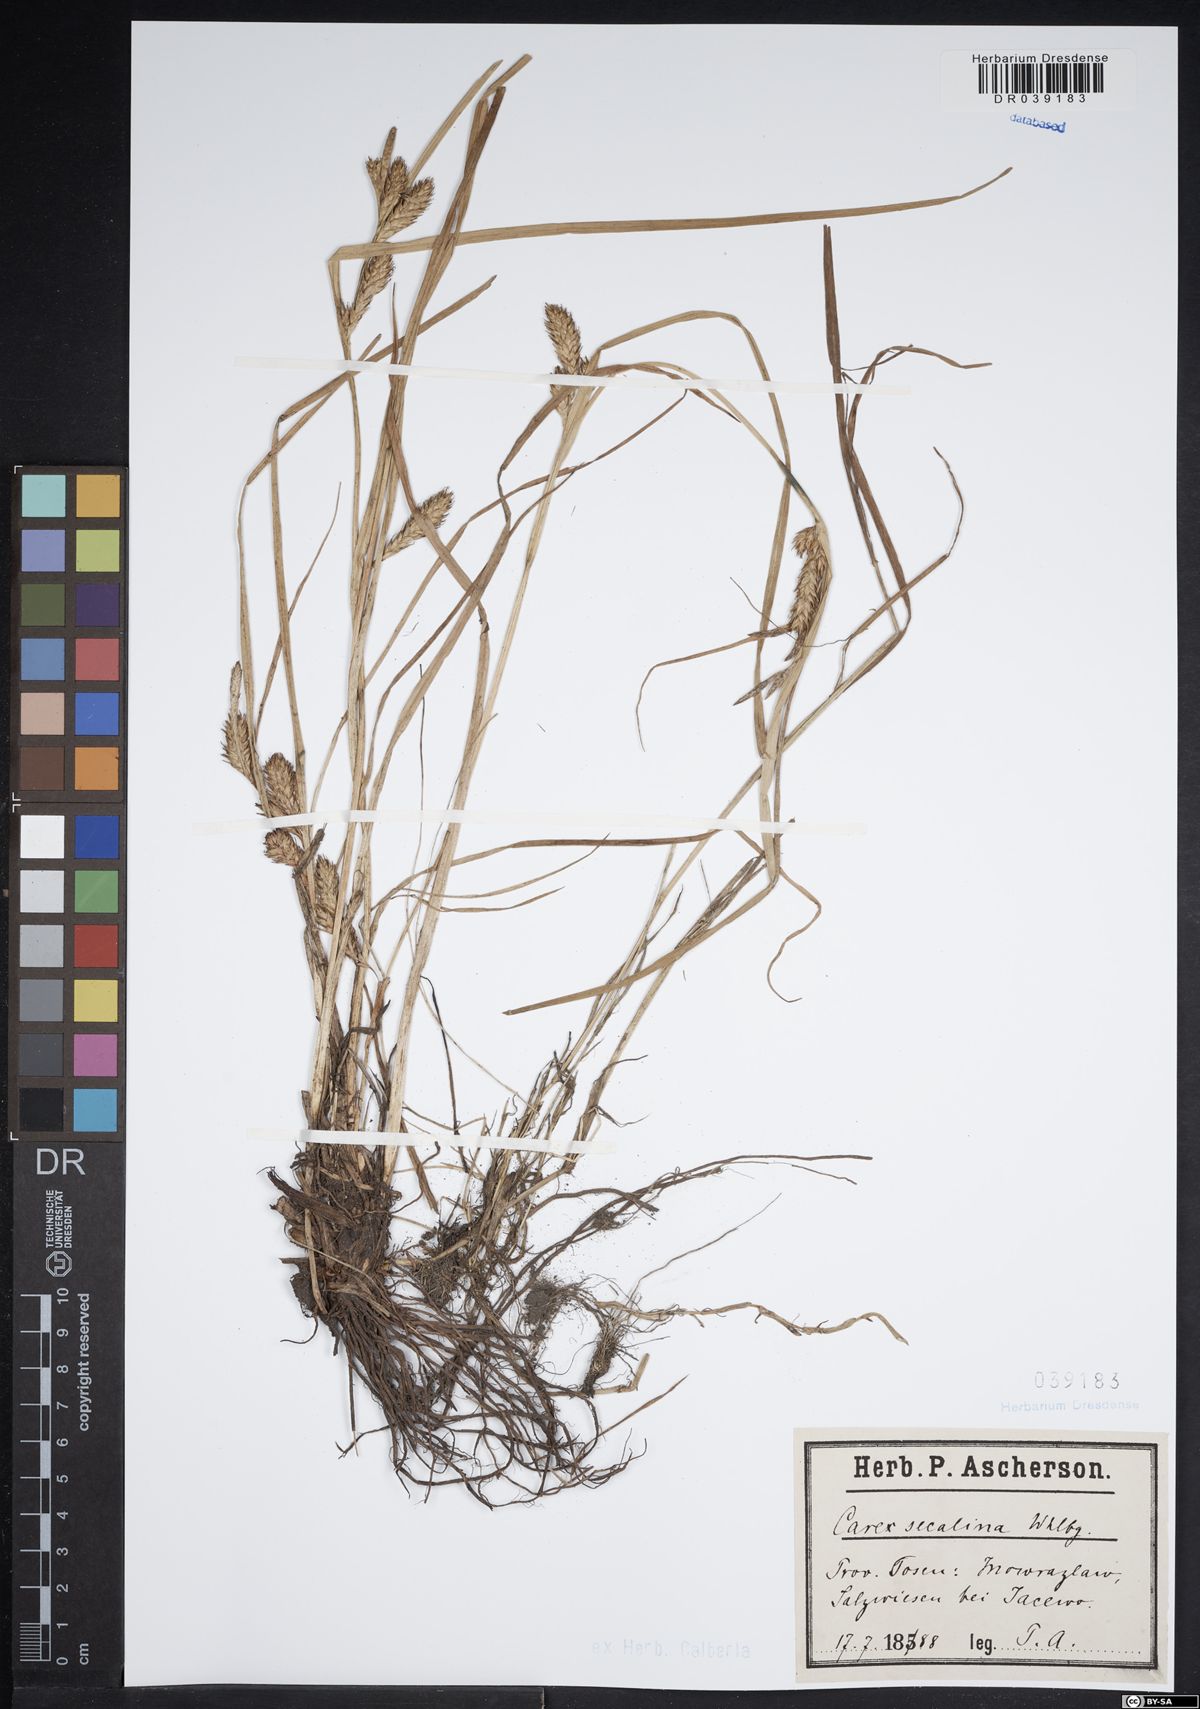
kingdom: Plantae
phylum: Tracheophyta
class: Liliopsida
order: Poales
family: Cyperaceae
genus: Carex
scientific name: Carex secalina
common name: Rye sedge
